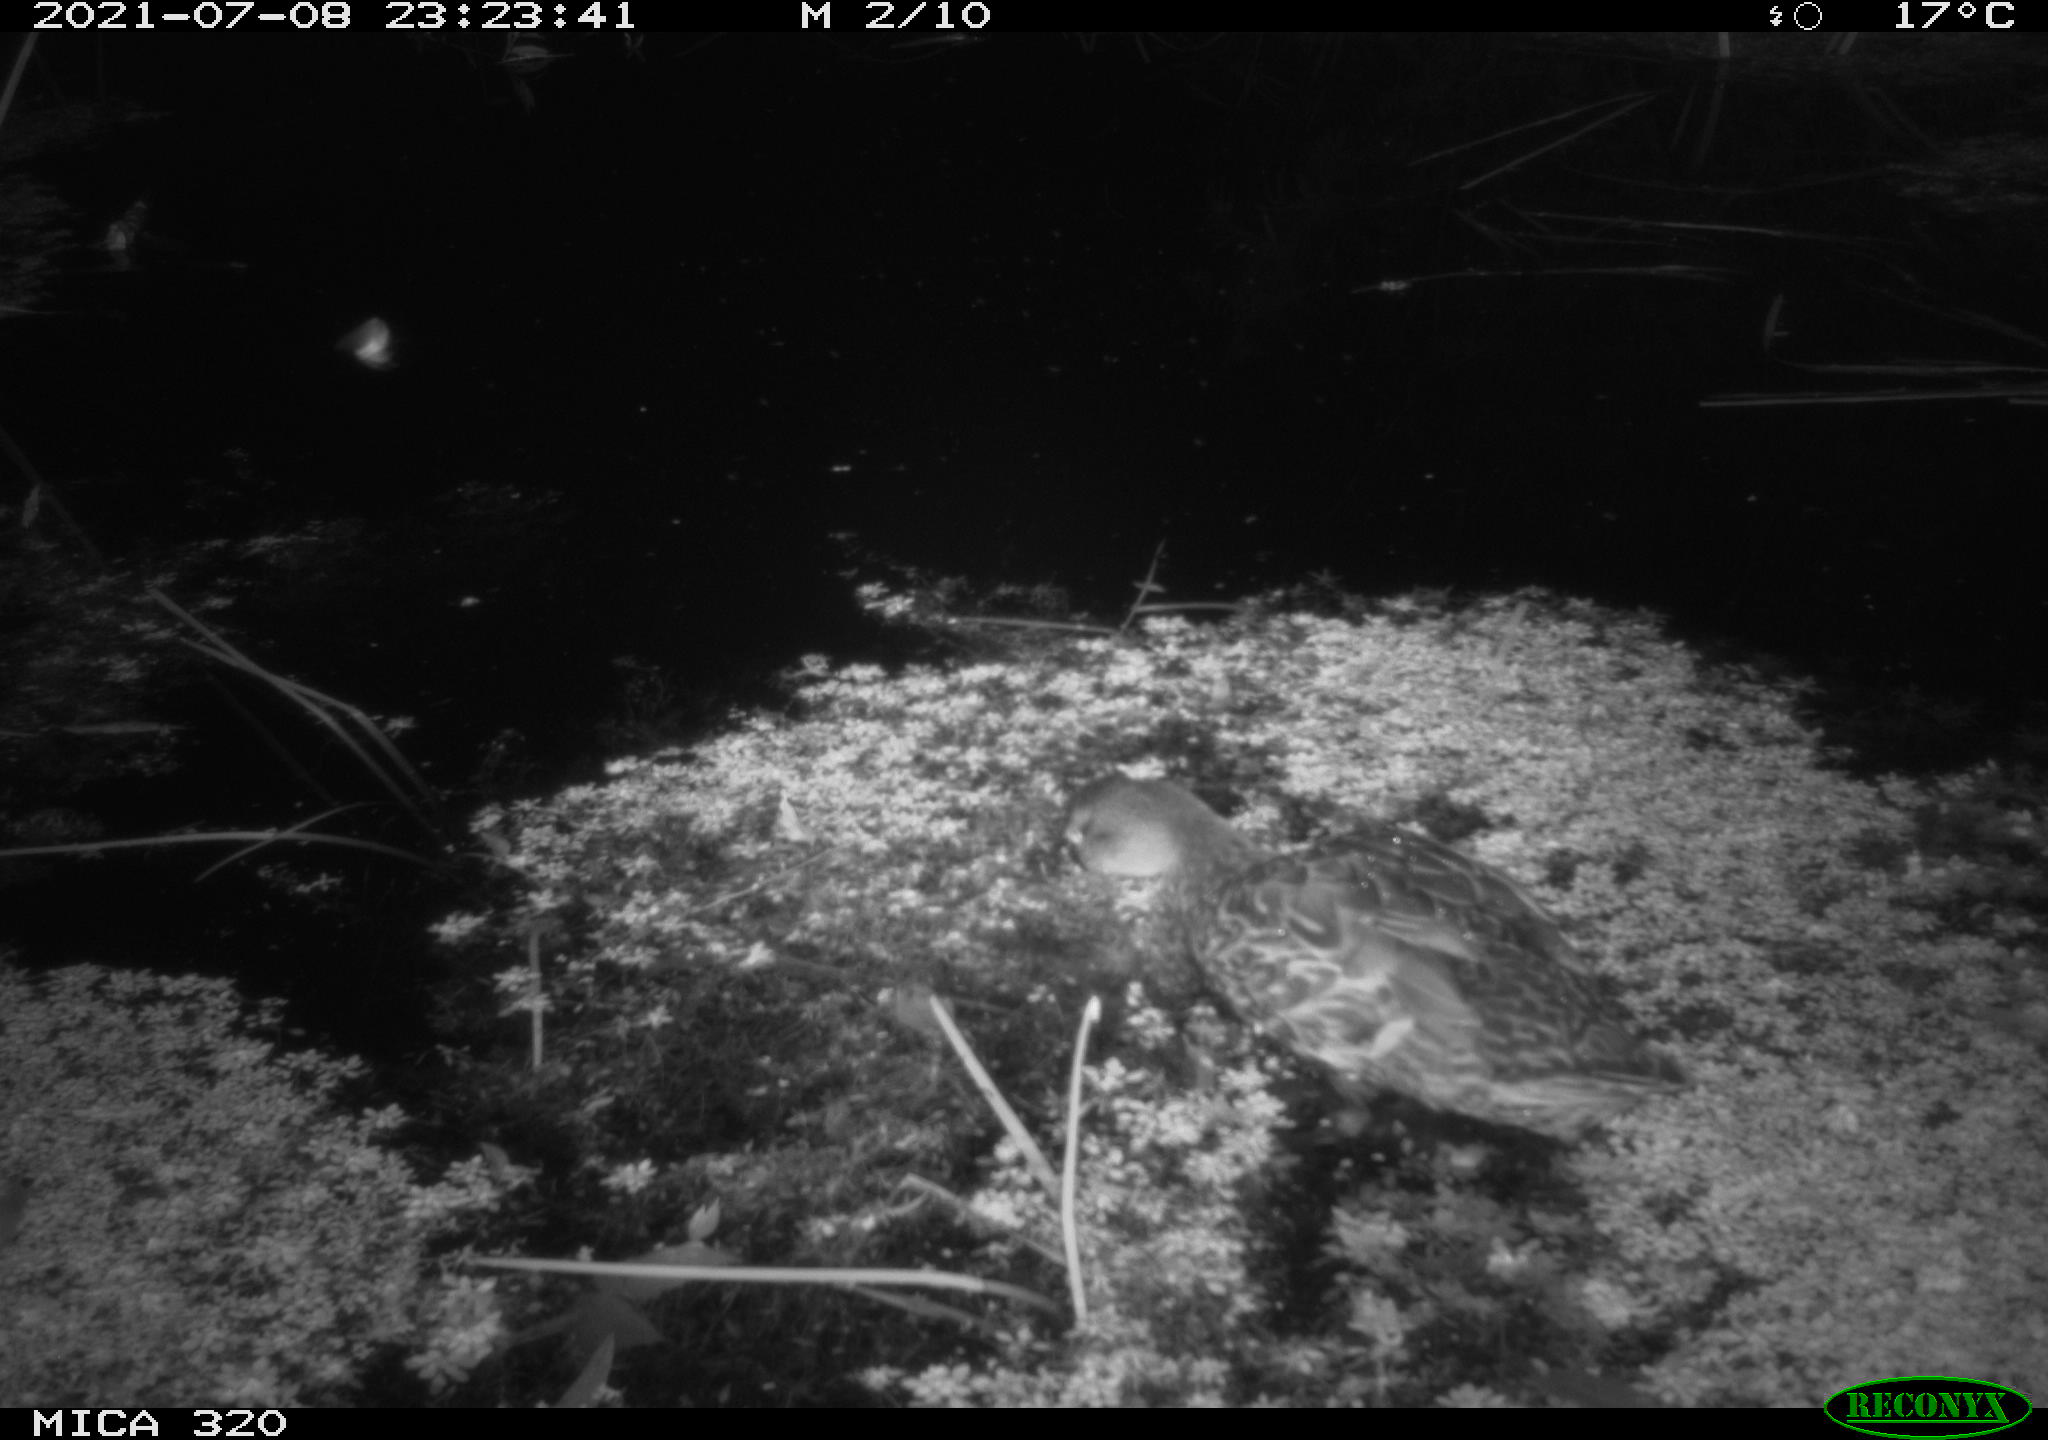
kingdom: Animalia
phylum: Chordata
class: Aves
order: Anseriformes
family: Anatidae
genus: Anas
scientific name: Anas platyrhynchos
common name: Mallard
